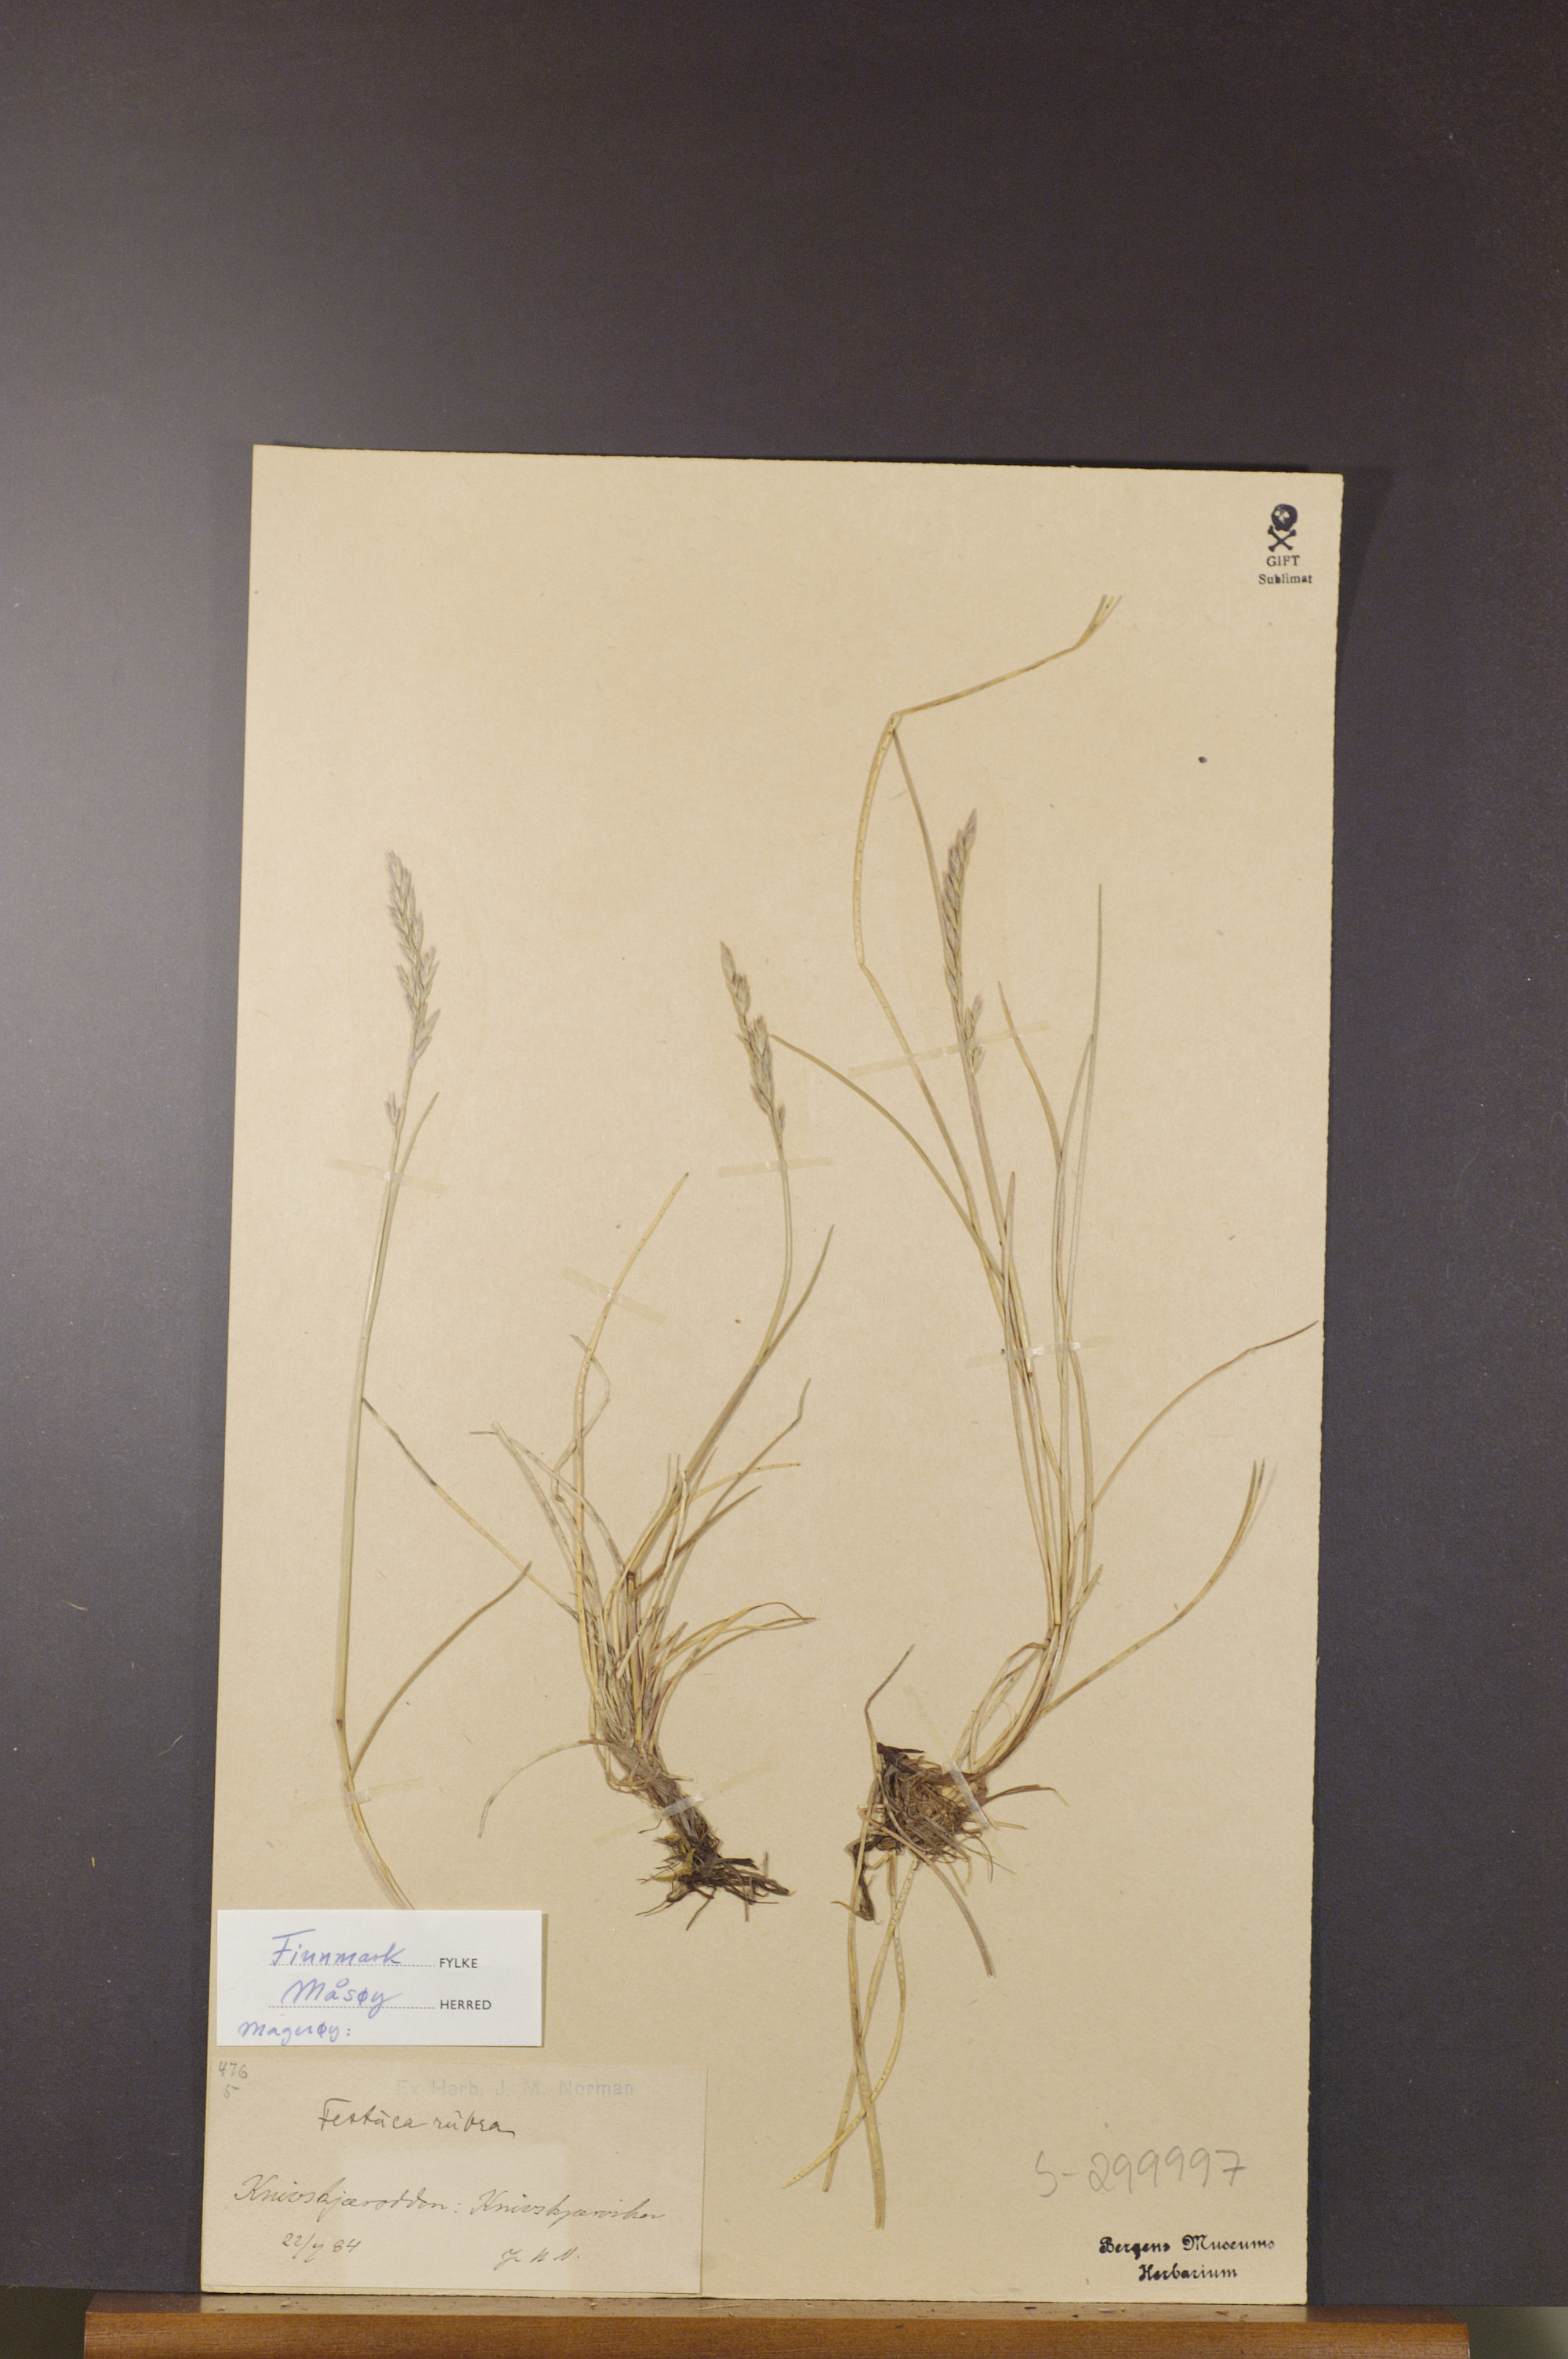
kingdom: Plantae
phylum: Tracheophyta
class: Liliopsida
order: Poales
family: Poaceae
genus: Festuca
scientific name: Festuca rubra
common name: Red fescue
